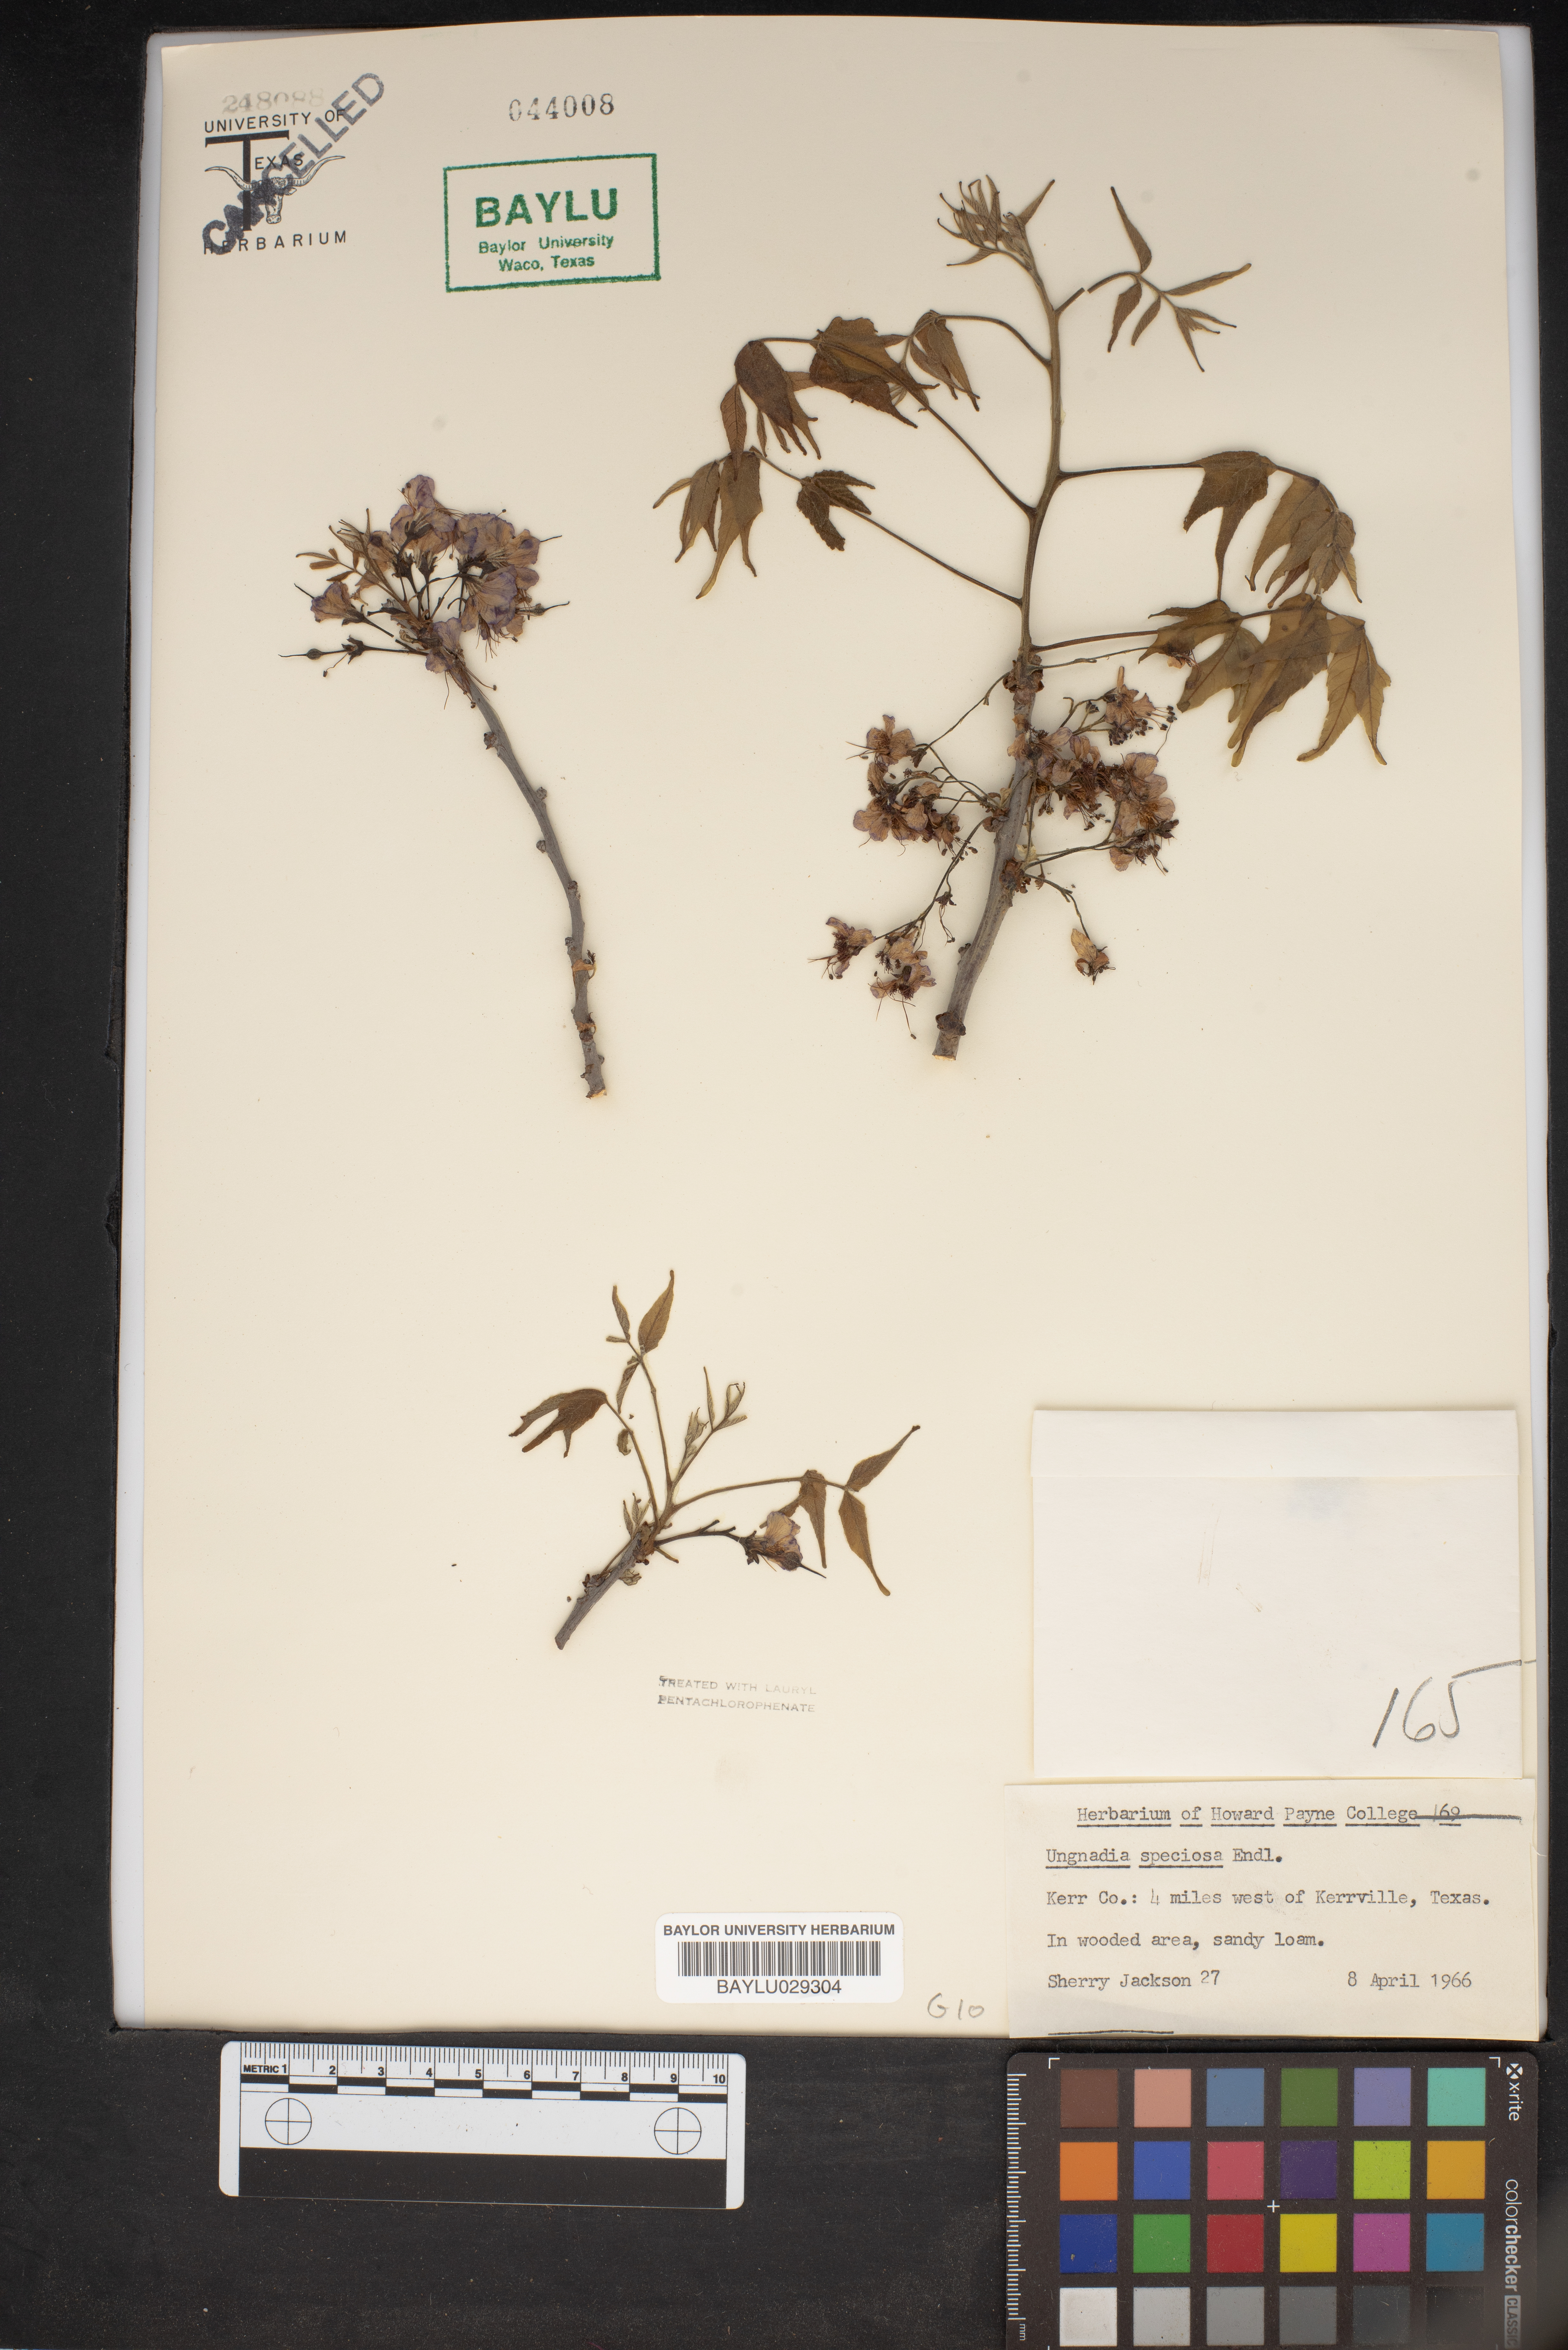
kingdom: Plantae
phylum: Tracheophyta
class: Magnoliopsida
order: Sapindales
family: Sapindaceae
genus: Ungnadia
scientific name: Ungnadia speciosa
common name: Texas-buckeye
